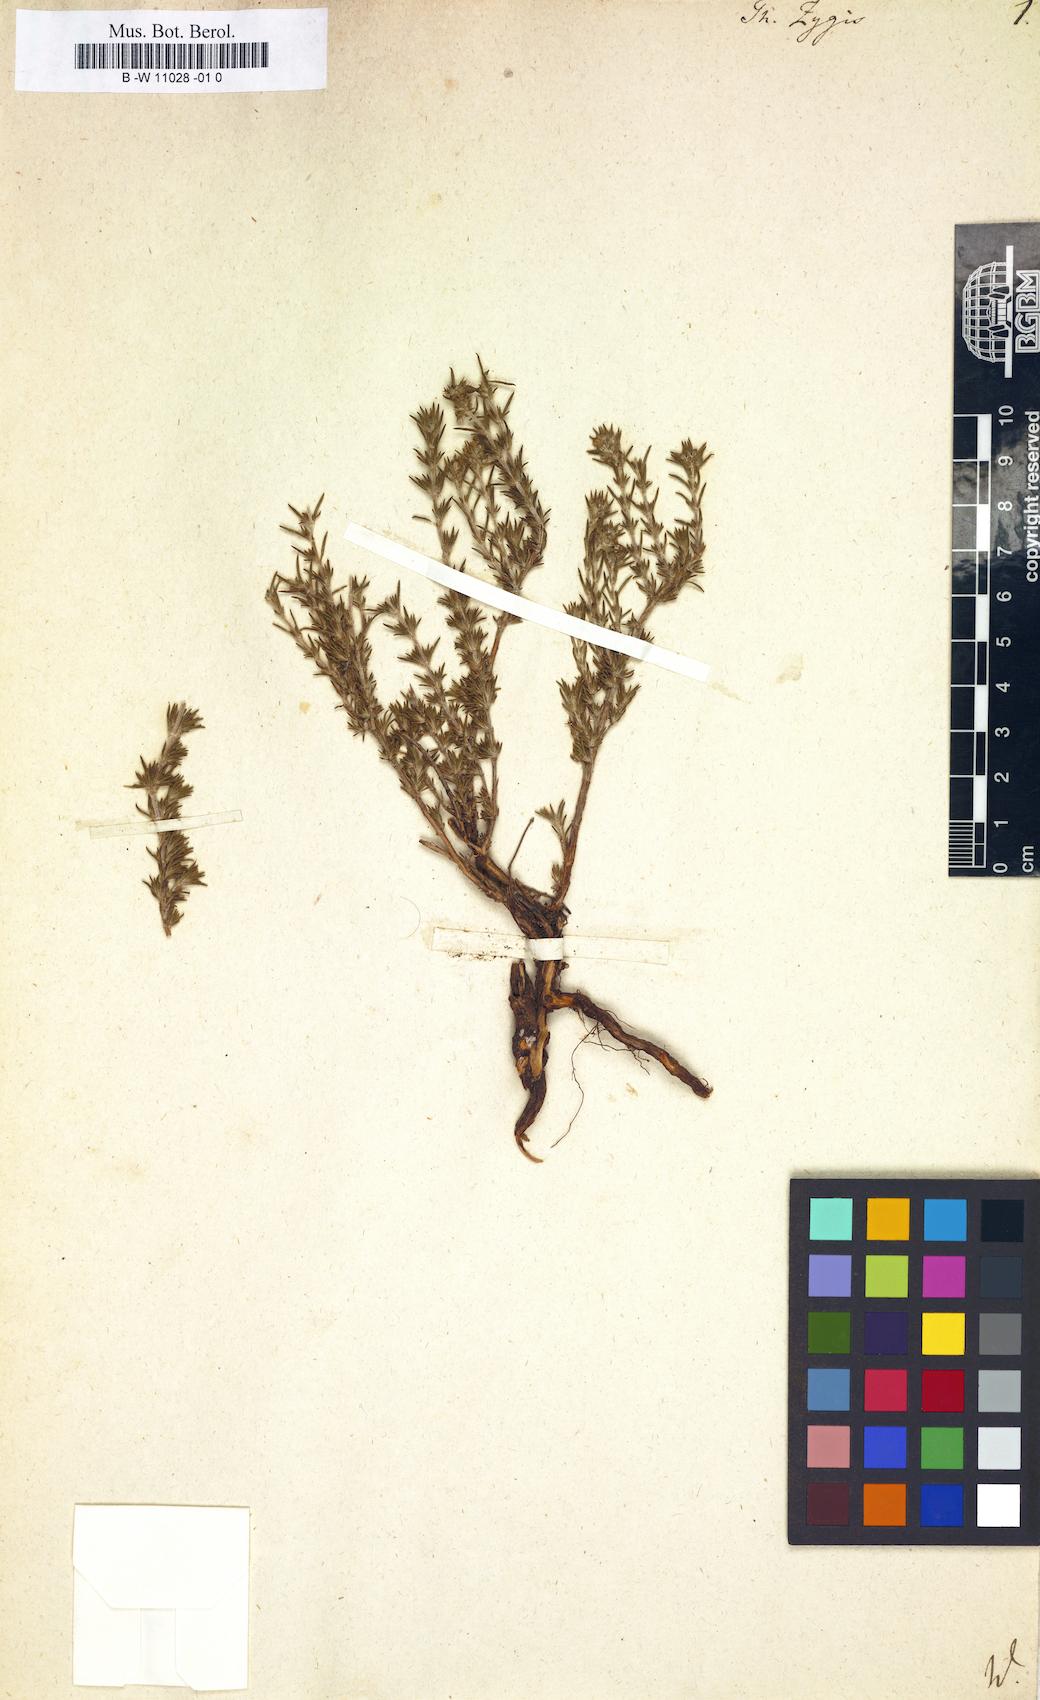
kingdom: Plantae
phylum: Tracheophyta
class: Magnoliopsida
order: Lamiales
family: Lamiaceae
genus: Thymus
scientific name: Thymus zygis
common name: White thyme
